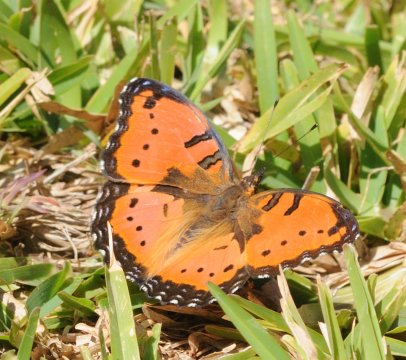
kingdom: Animalia
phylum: Arthropoda
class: Insecta
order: Lepidoptera
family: Nymphalidae
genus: Precis
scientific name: Precis octavia
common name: Gaudy Commodore
